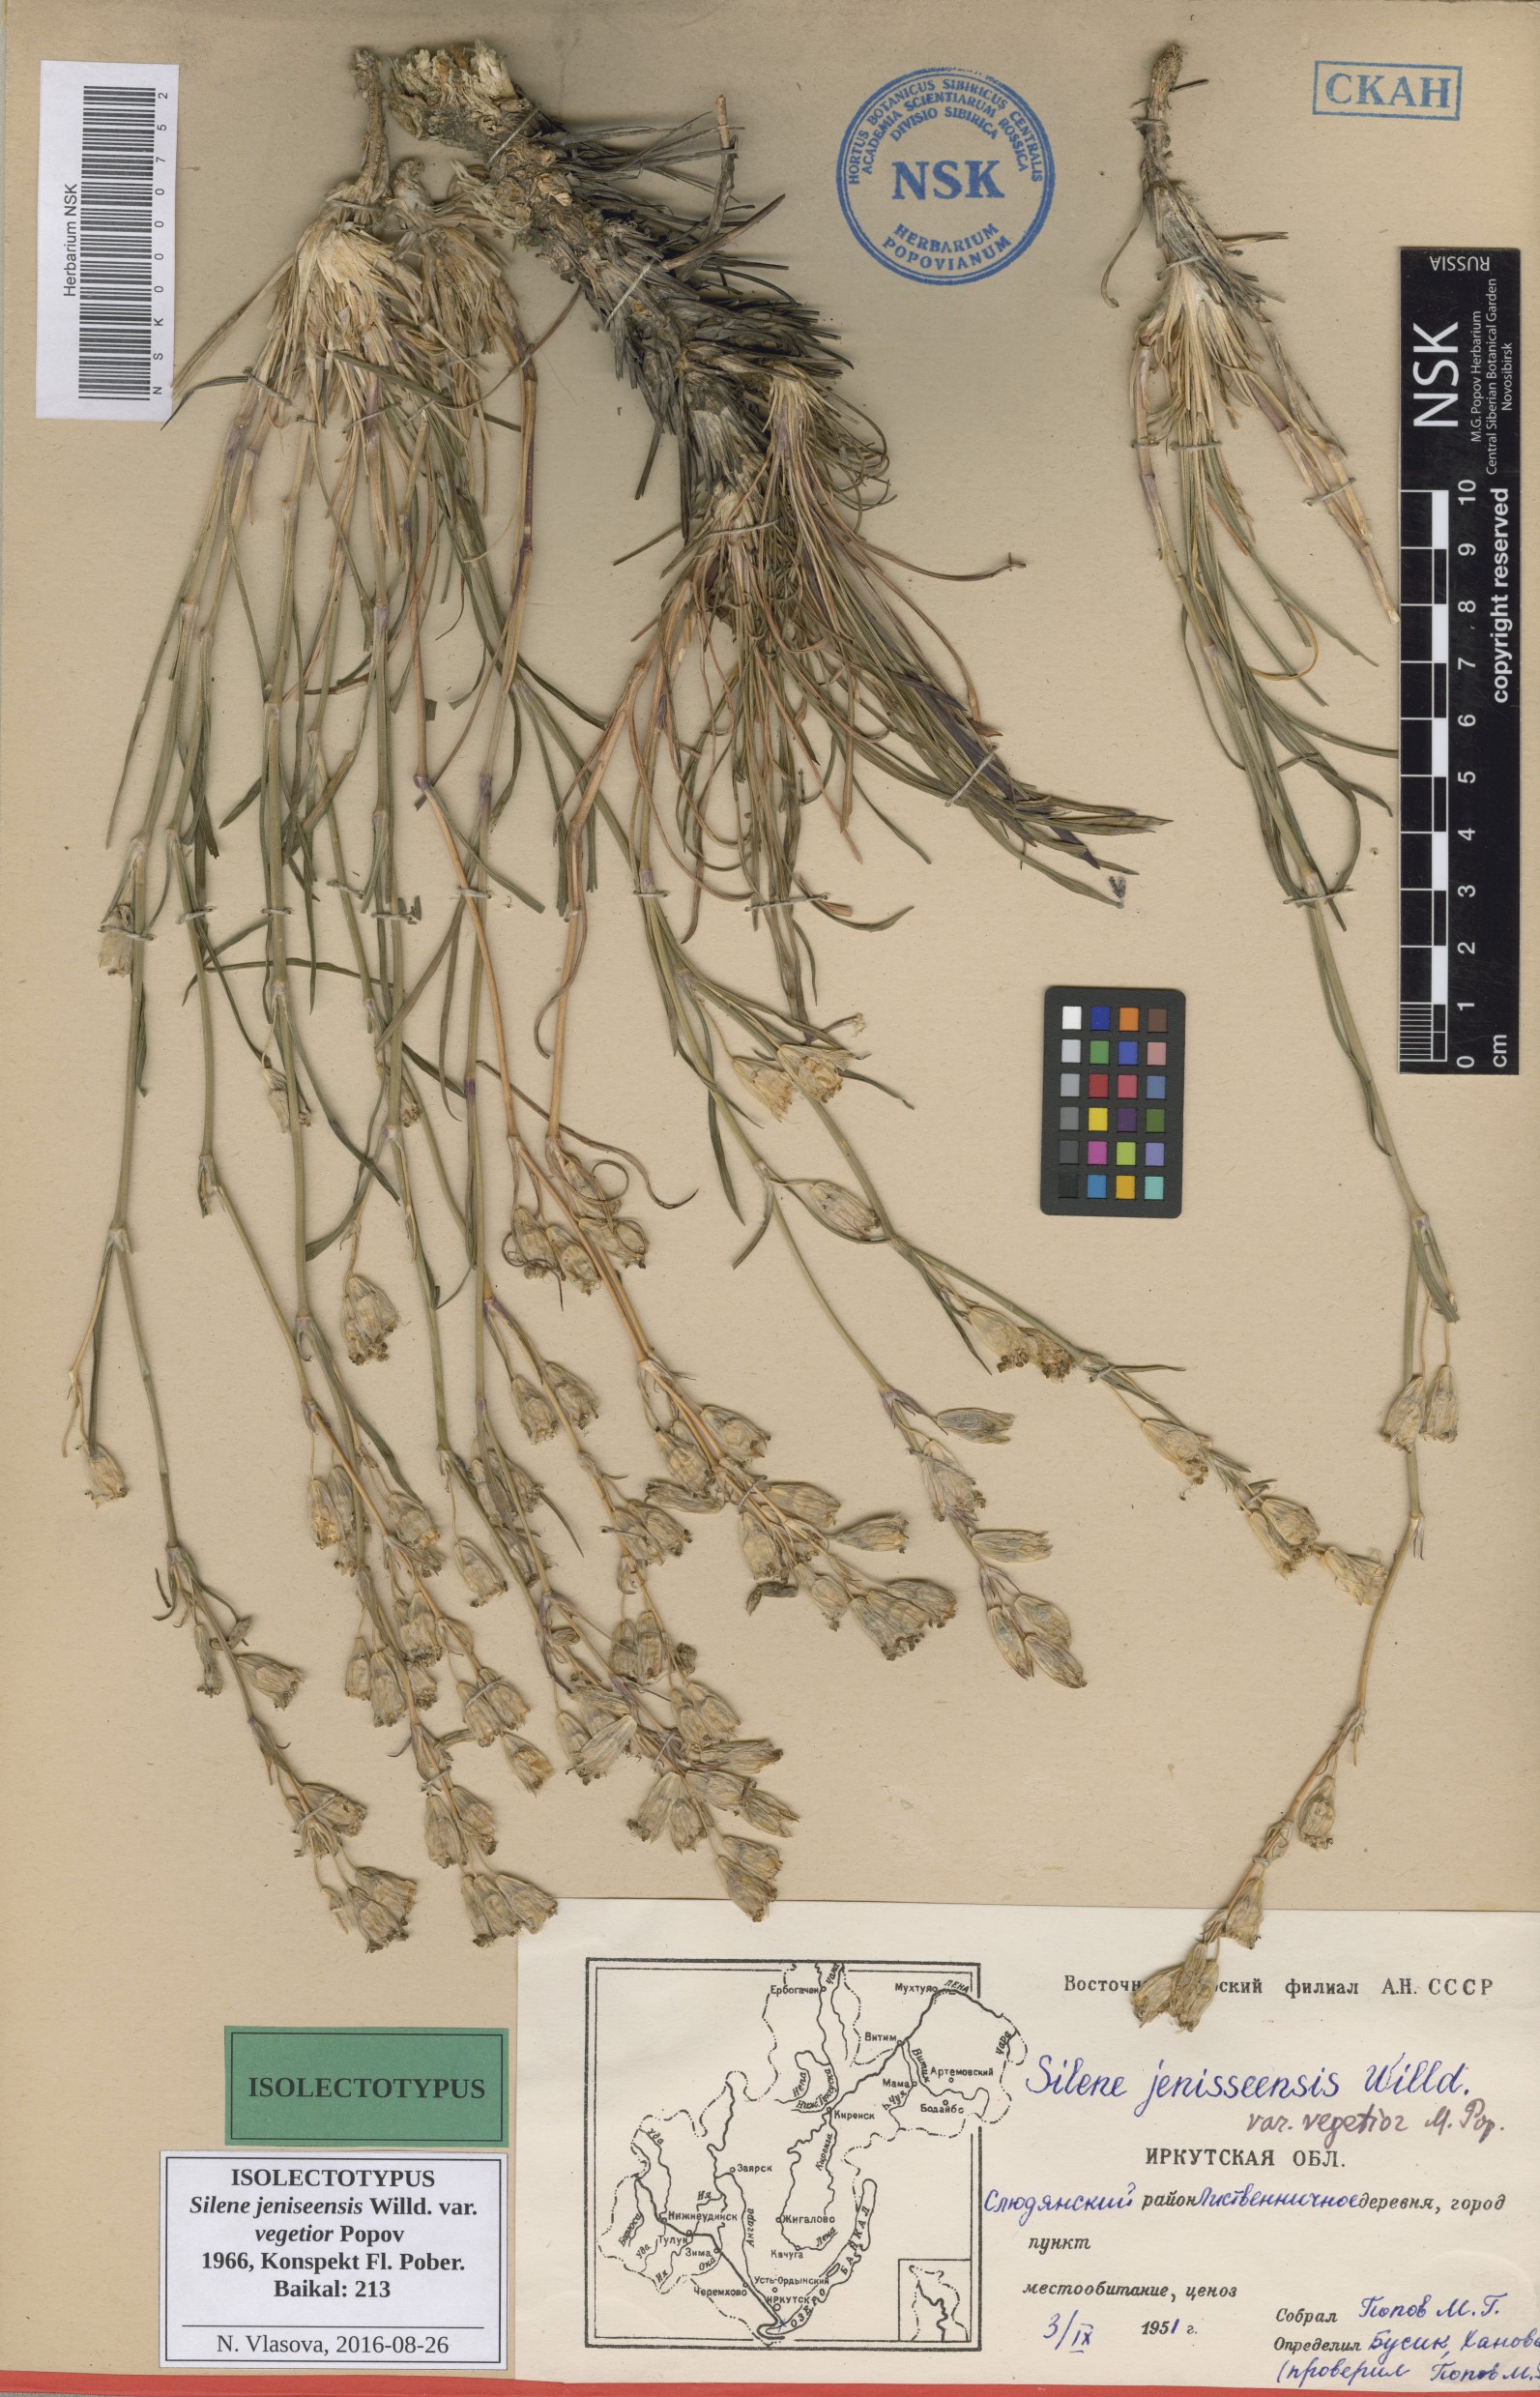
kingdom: Plantae
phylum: Tracheophyta
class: Magnoliopsida
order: Caryophyllales
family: Caryophyllaceae
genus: Silene
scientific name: Silene jeniseensis
